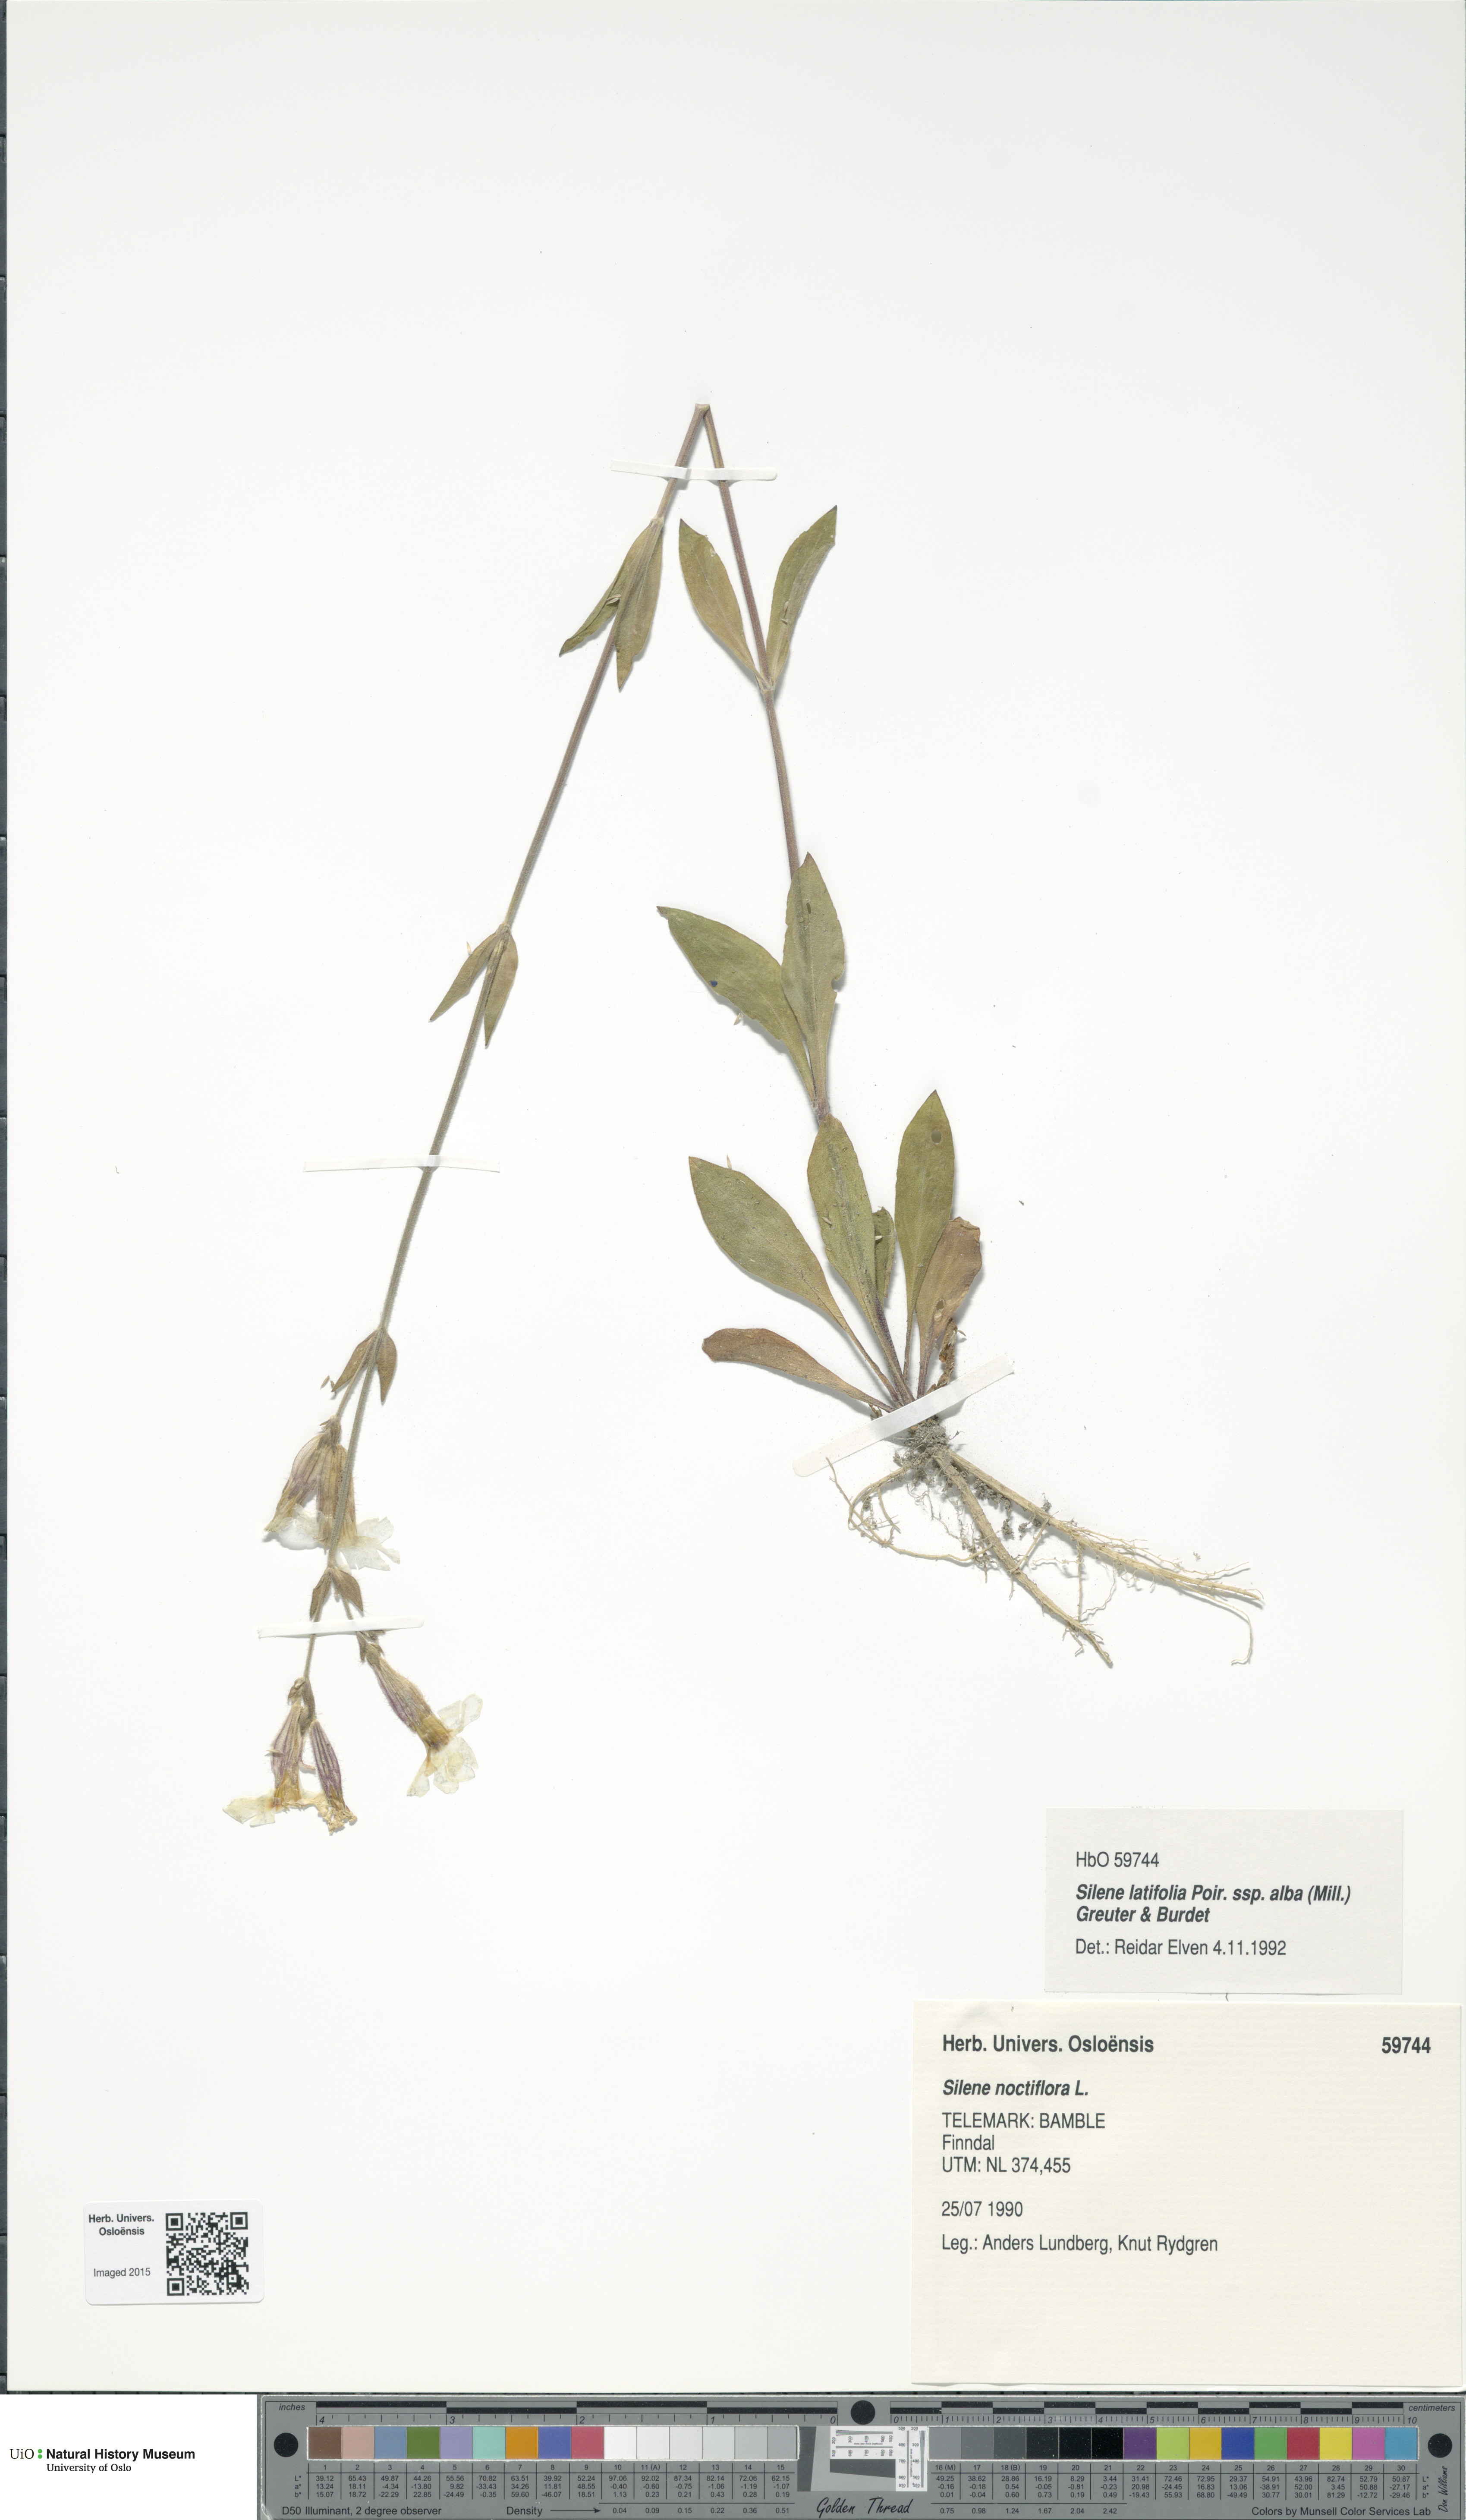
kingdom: Plantae
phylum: Tracheophyta
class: Magnoliopsida
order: Caryophyllales
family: Caryophyllaceae
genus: Silene
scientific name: Silene latifolia
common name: White campion
